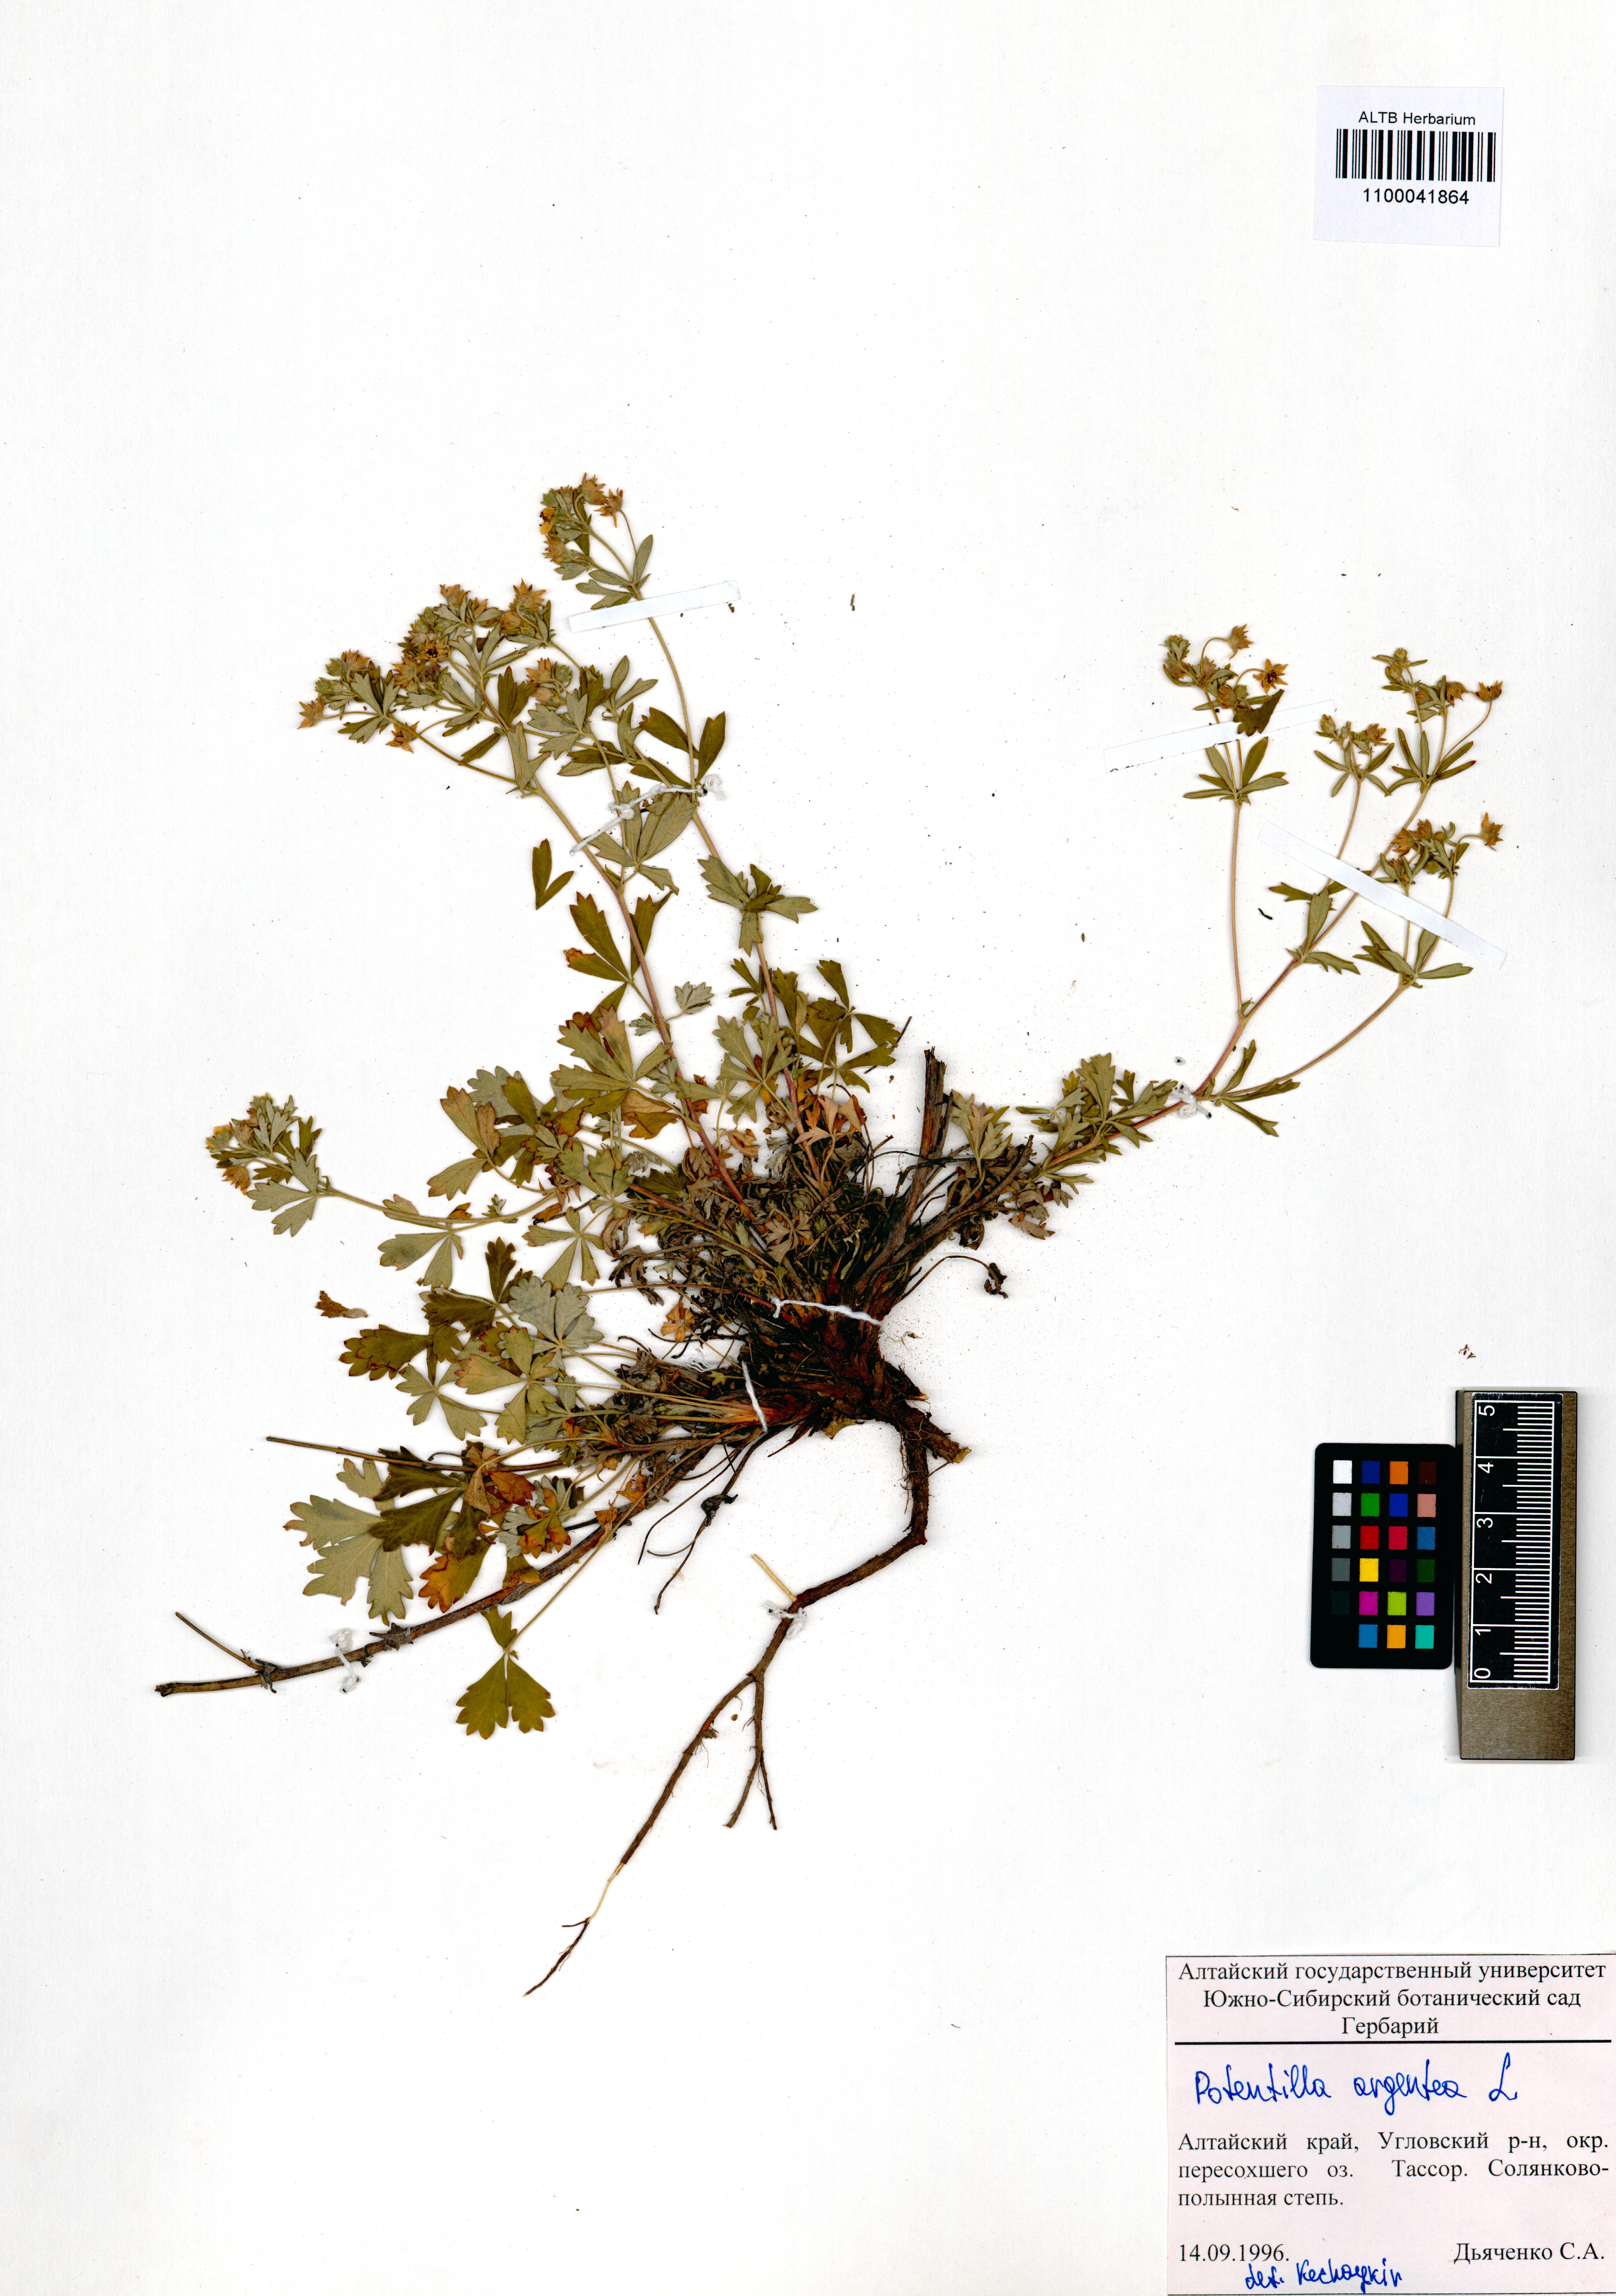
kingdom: Plantae
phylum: Tracheophyta
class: Magnoliopsida
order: Rosales
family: Rosaceae
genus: Potentilla
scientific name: Potentilla argentea
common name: Hoary cinquefoil
